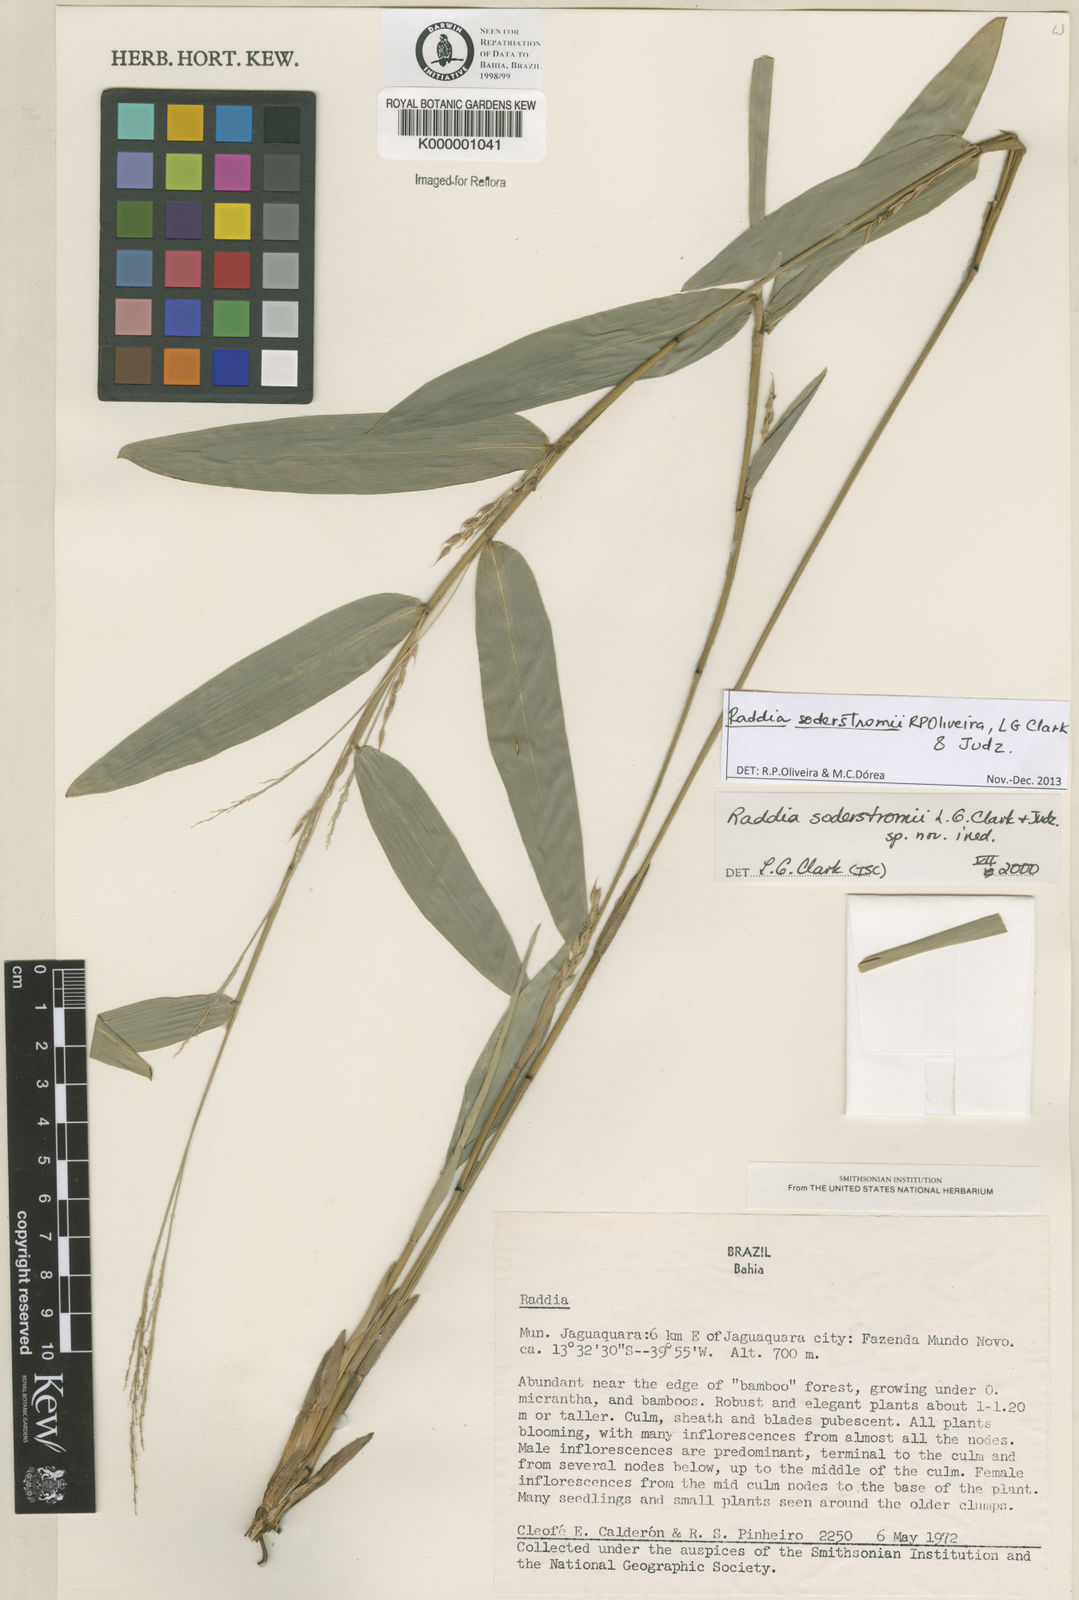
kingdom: Plantae
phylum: Tracheophyta
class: Liliopsida
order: Poales
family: Poaceae
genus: Raddia
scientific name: Raddia
